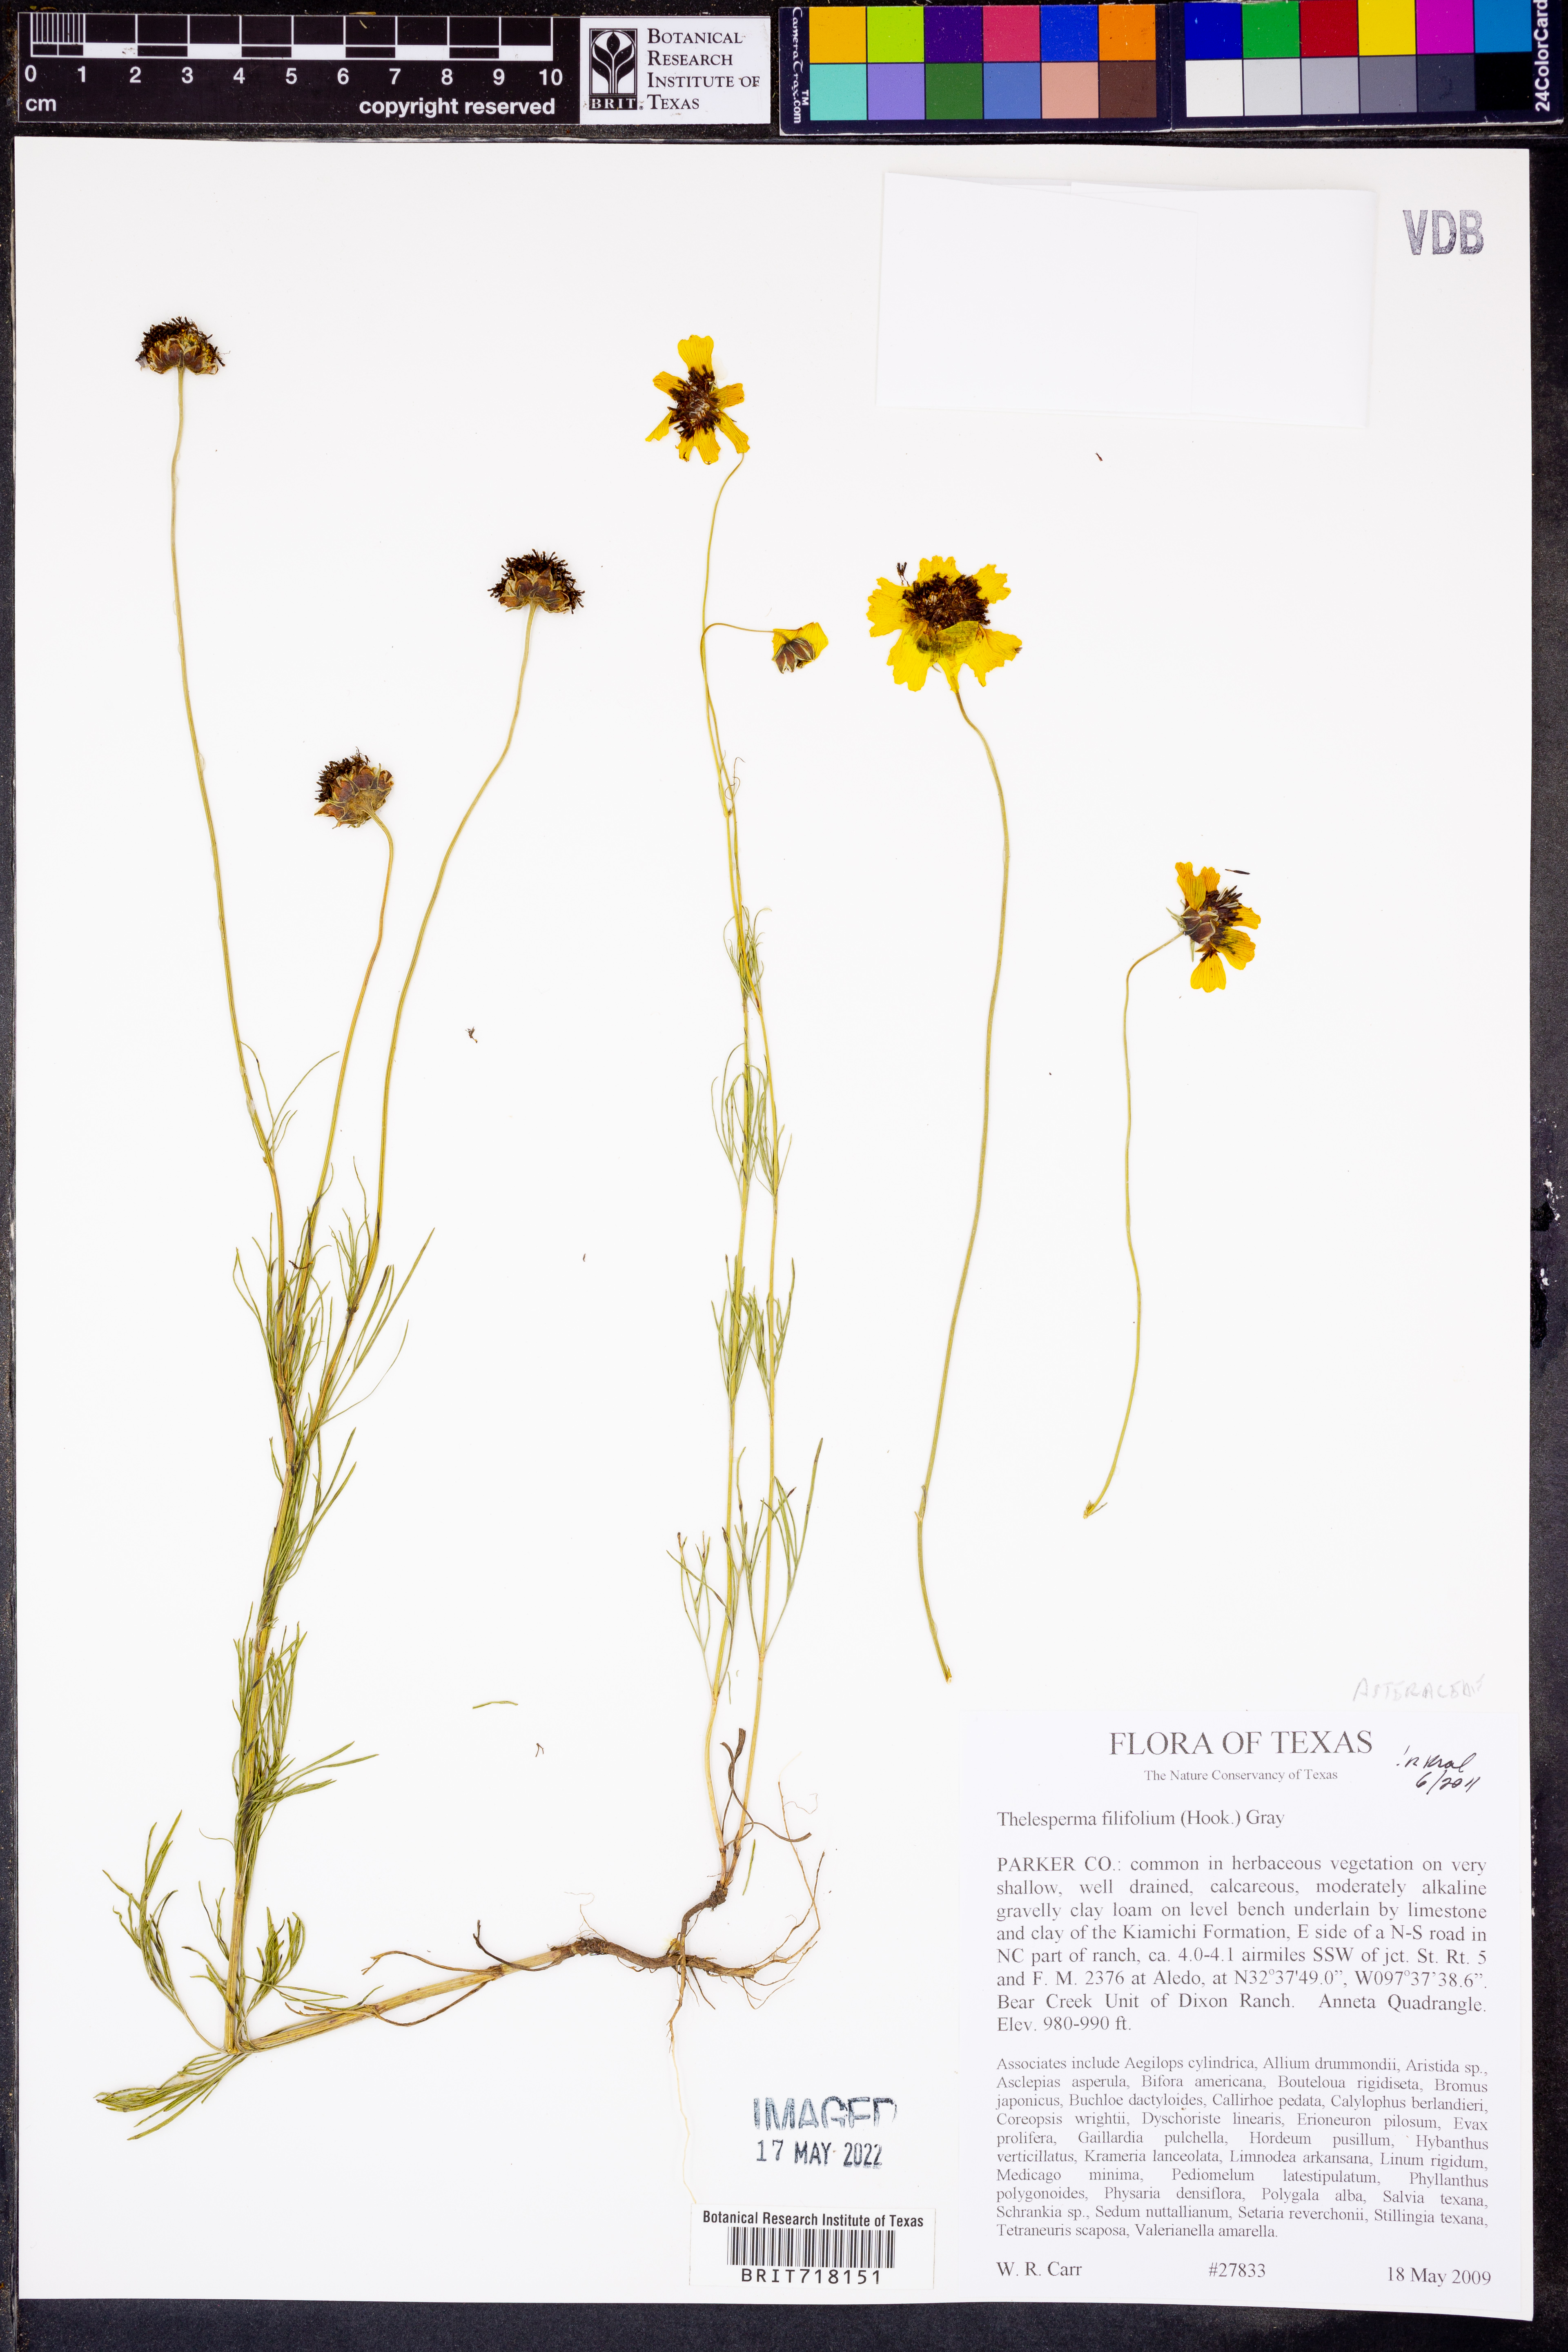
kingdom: Plantae
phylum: Tracheophyta
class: Magnoliopsida
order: Asterales
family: Asteraceae
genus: Thelesperma
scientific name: Thelesperma filifolium
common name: Stiff greenthread
